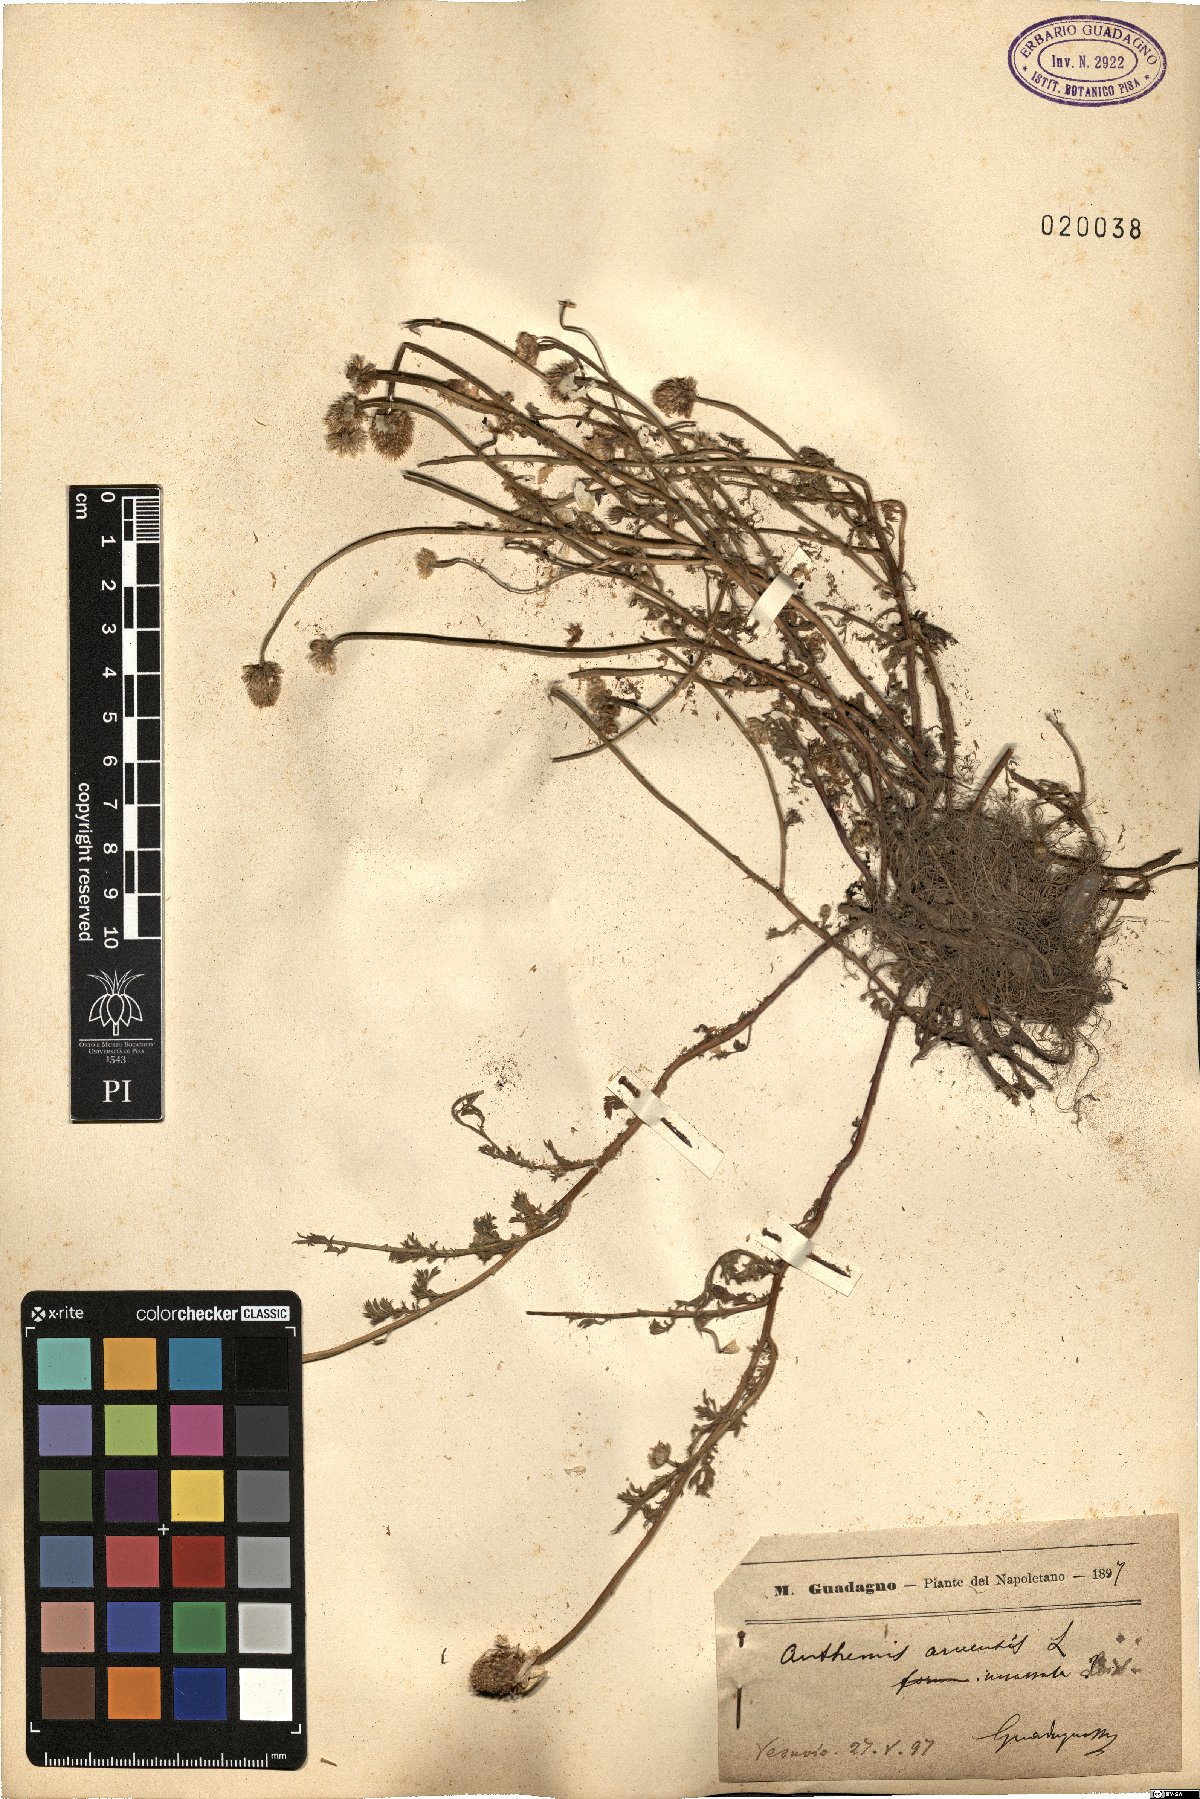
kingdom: Plantae
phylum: Tracheophyta
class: Magnoliopsida
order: Asterales
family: Asteraceae
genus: Anthemis
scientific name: Anthemis arvensis
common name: Corn chamomile
